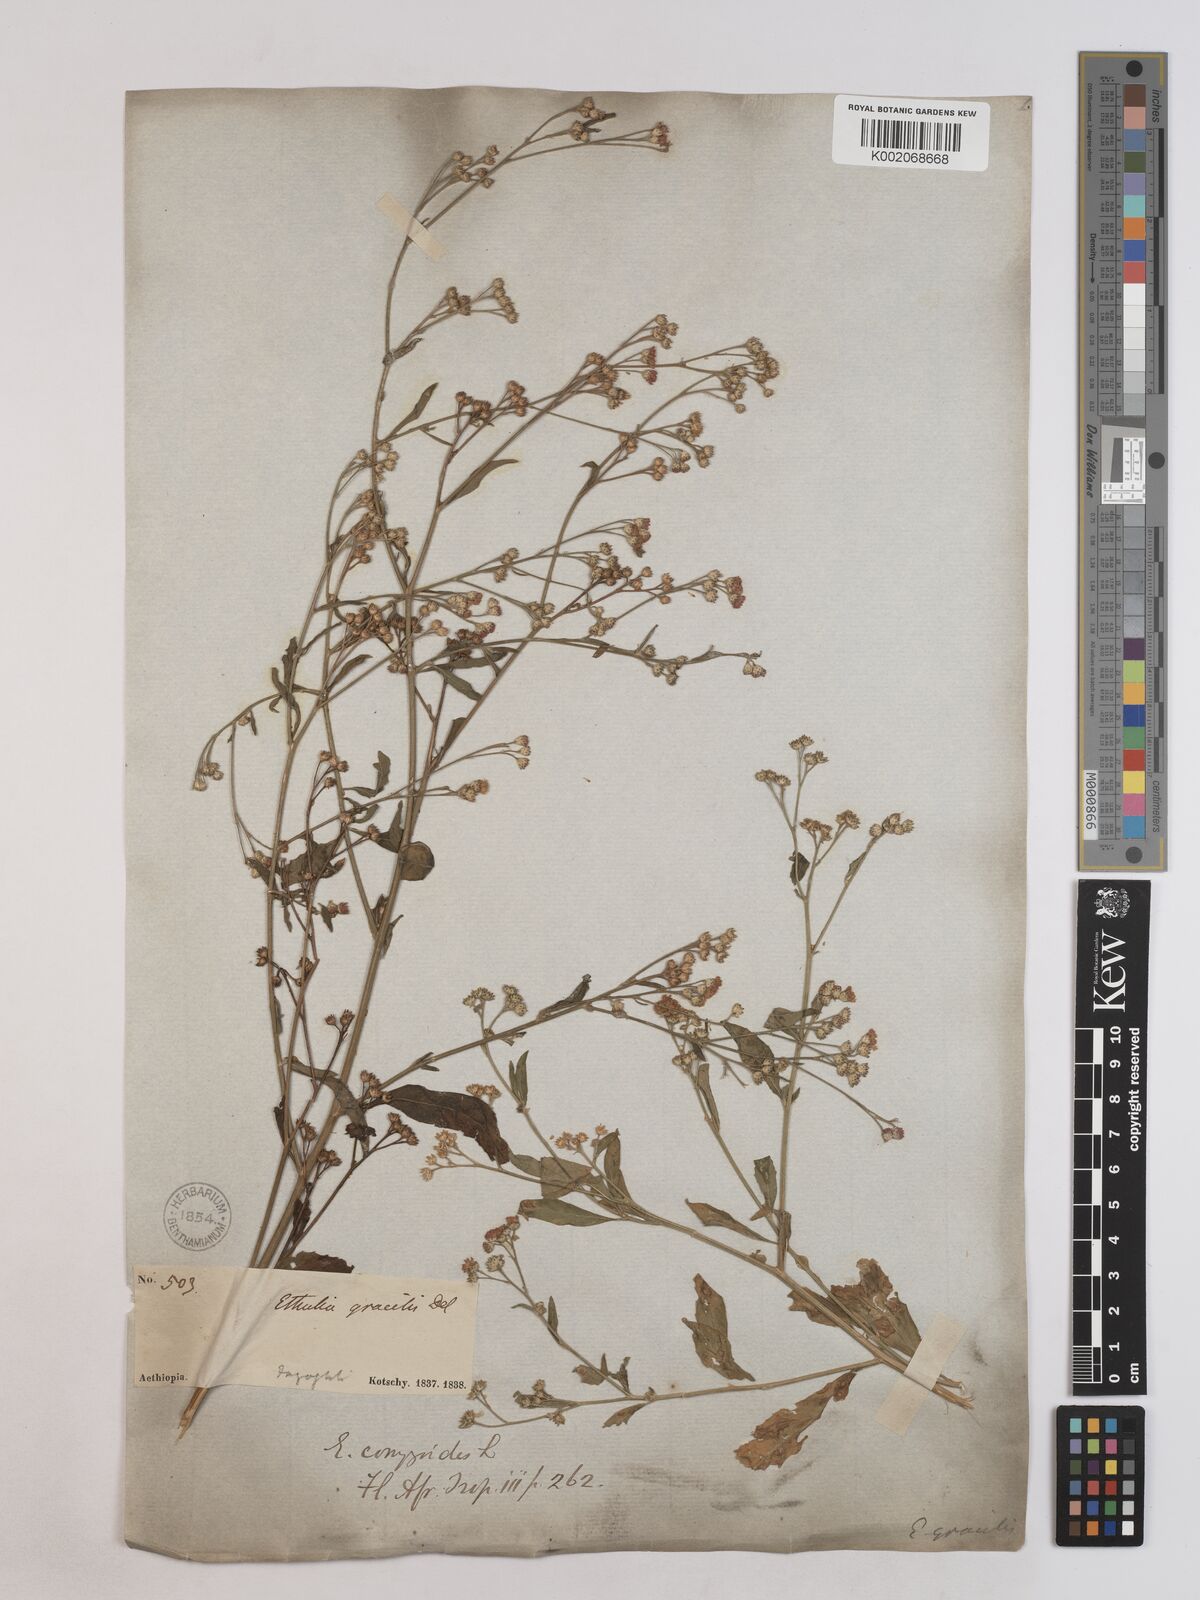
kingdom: Plantae
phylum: Tracheophyta
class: Magnoliopsida
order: Asterales
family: Asteraceae
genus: Ethulia
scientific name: Ethulia gracilis
